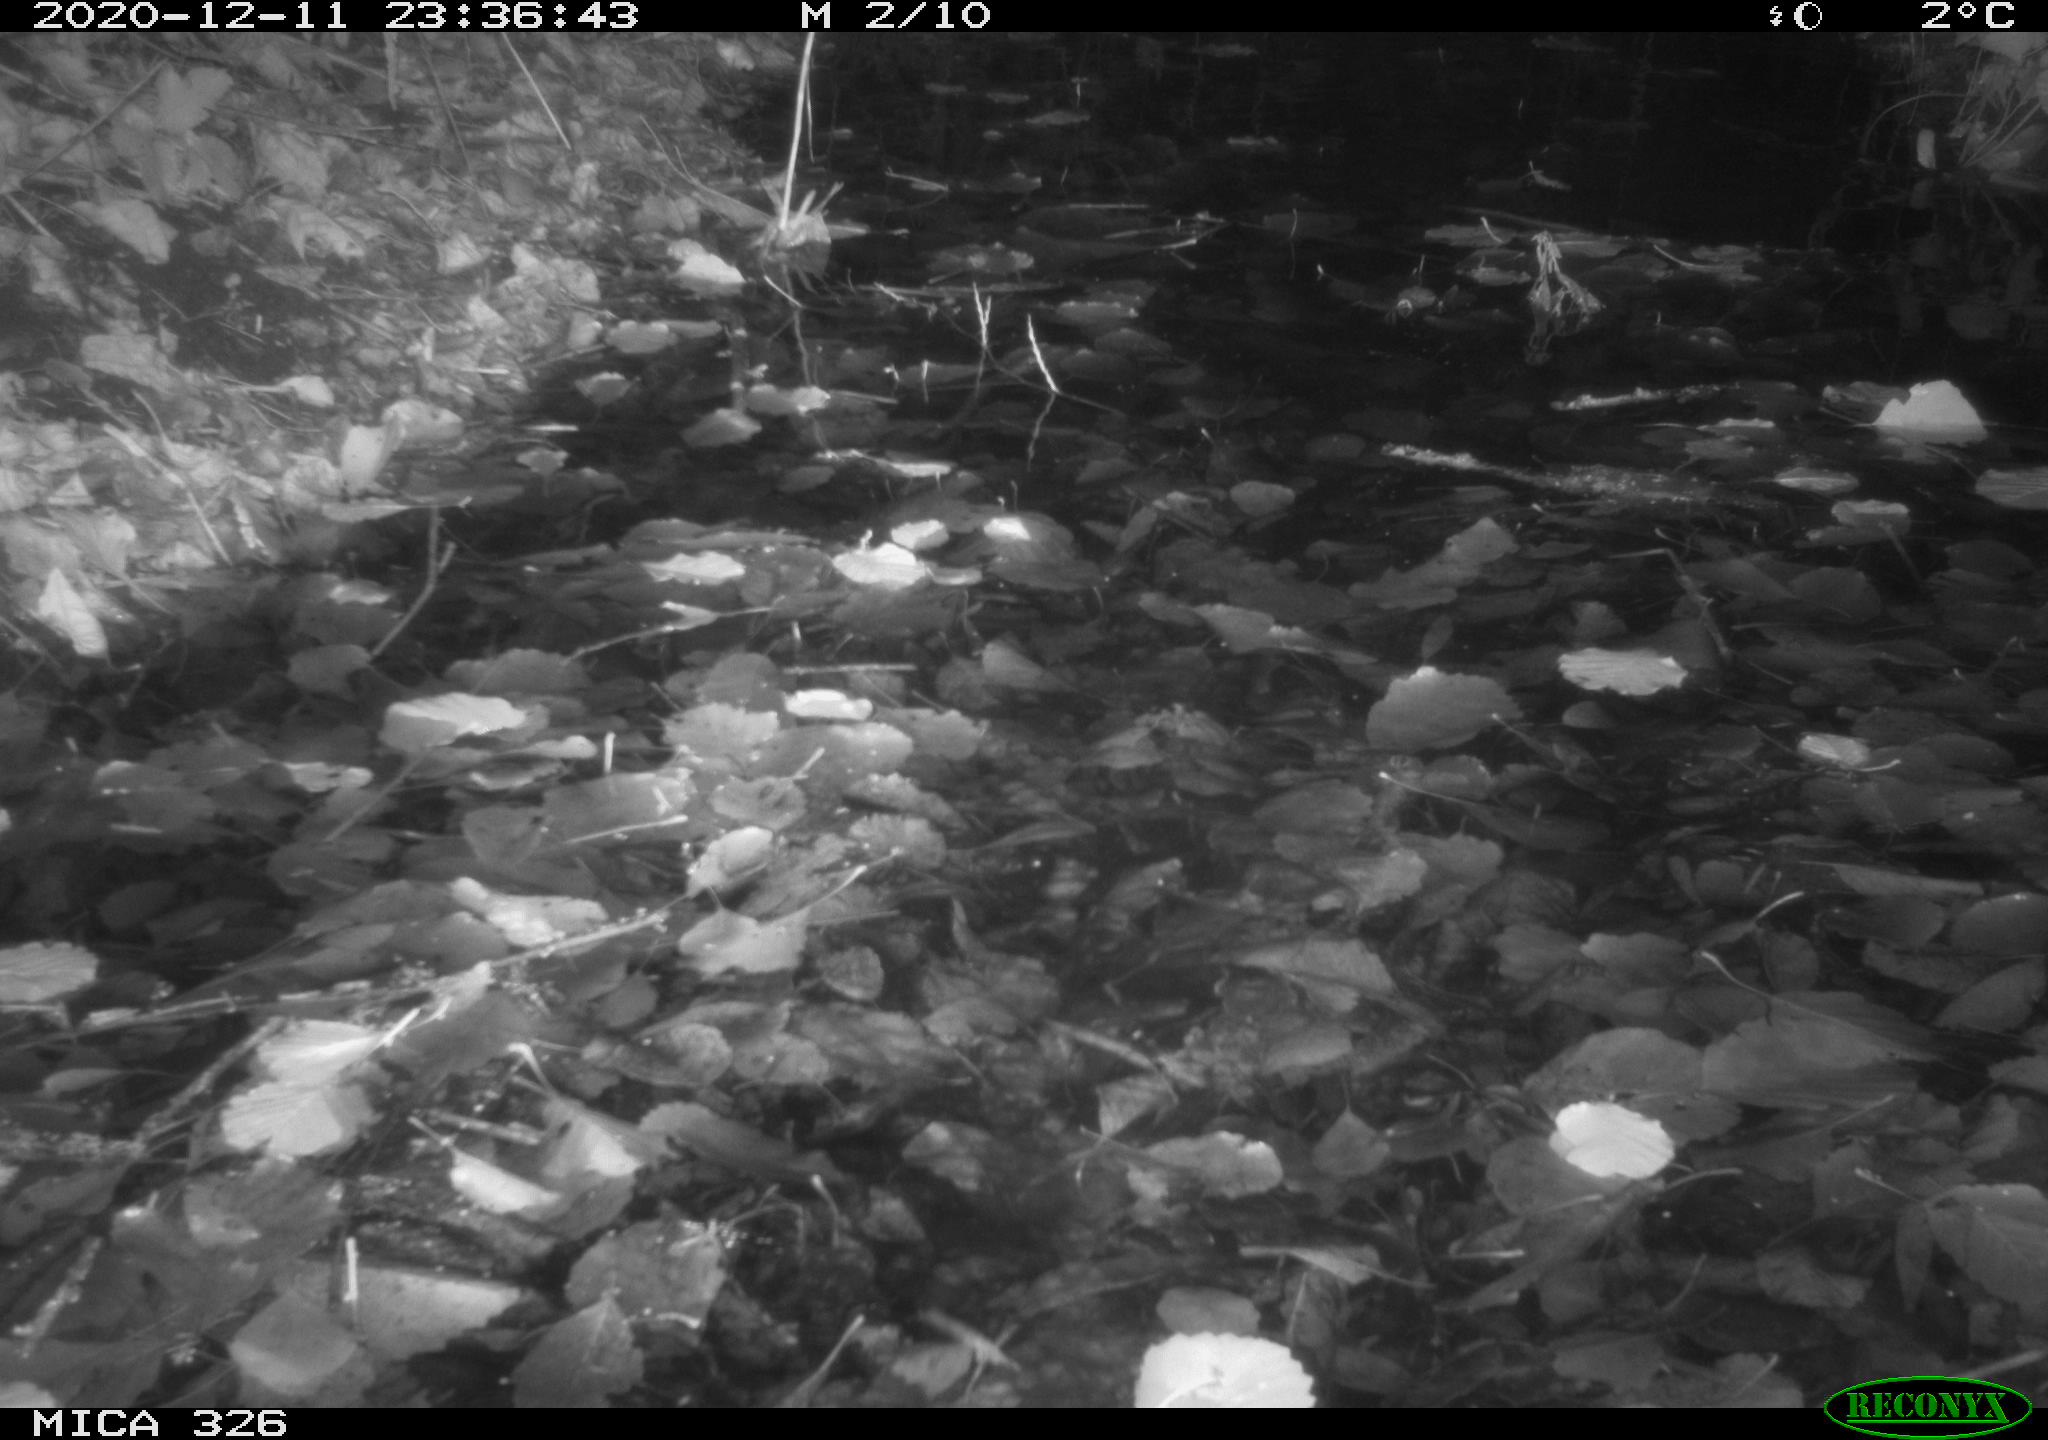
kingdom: Animalia
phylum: Chordata
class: Mammalia
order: Rodentia
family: Cricetidae
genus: Ondatra
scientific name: Ondatra zibethicus
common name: Muskrat
